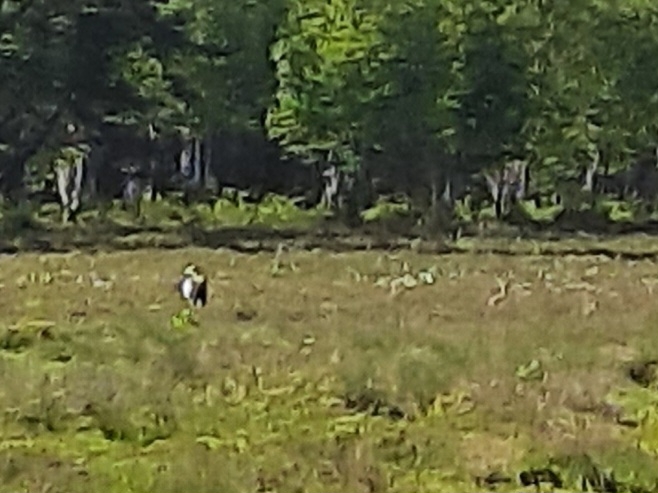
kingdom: Animalia
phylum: Chordata
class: Aves
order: Gruiformes
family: Gruidae
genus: Grus
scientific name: Grus grus
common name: Trane
